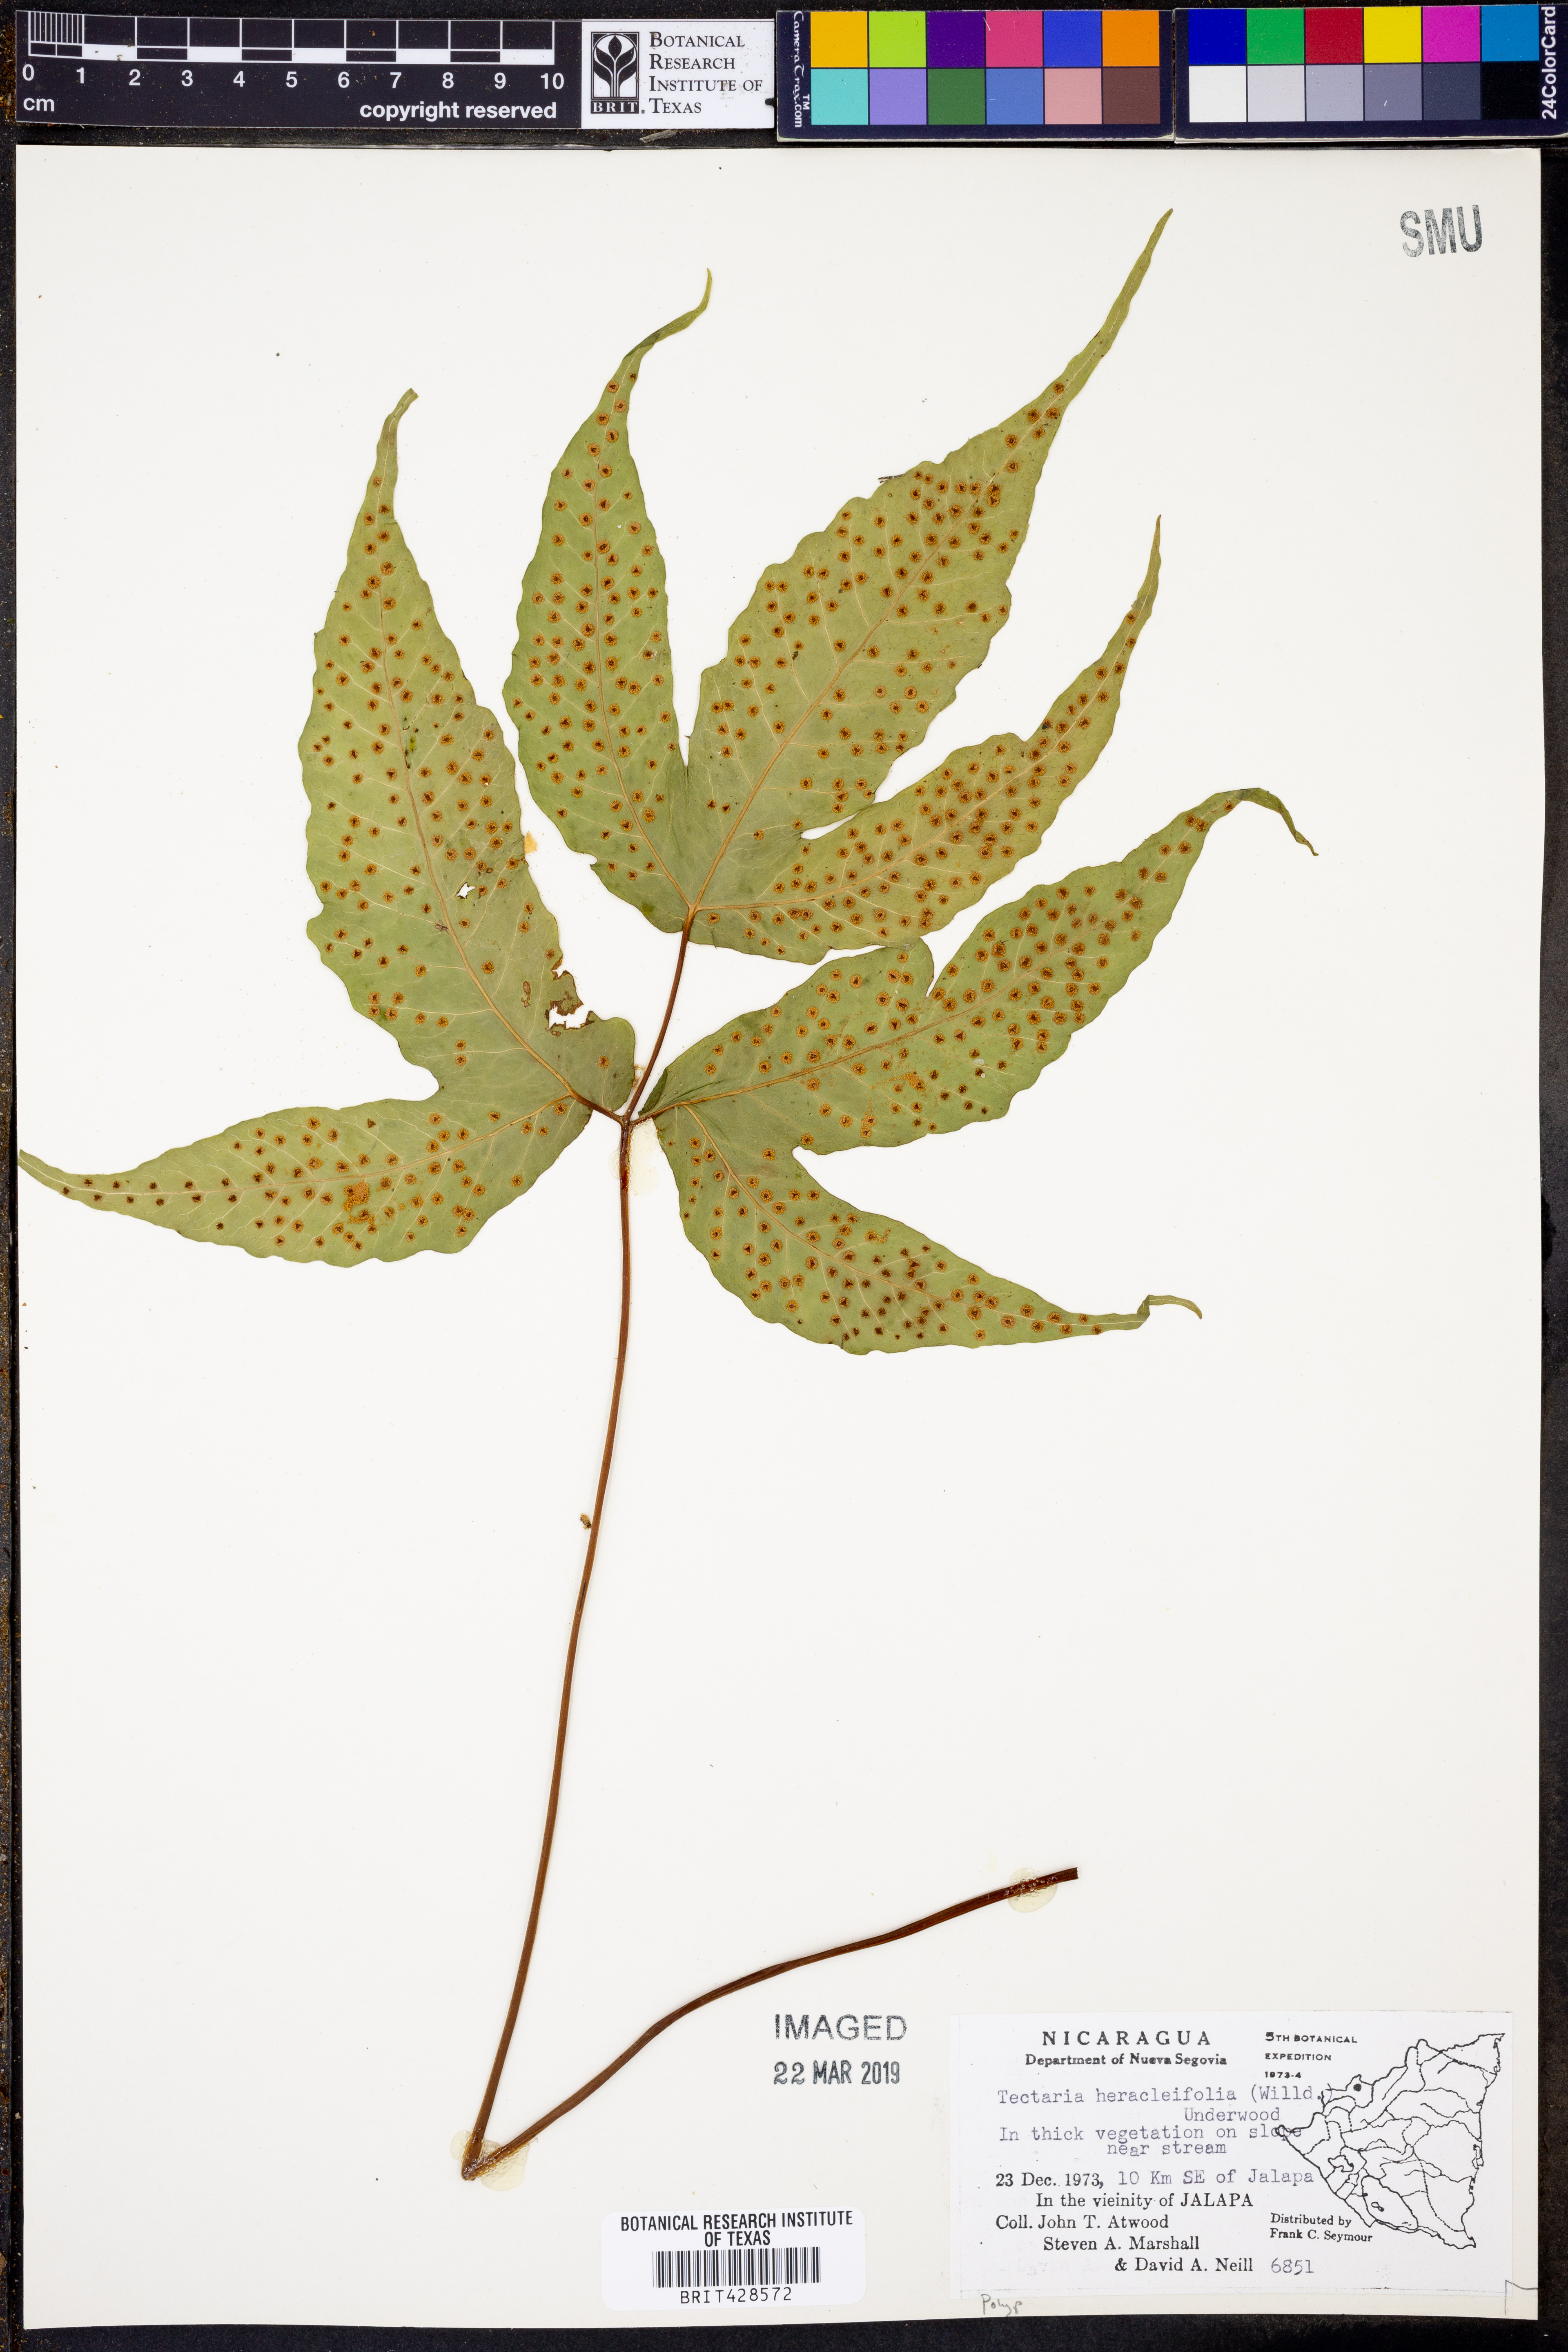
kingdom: Plantae
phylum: Tracheophyta
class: Polypodiopsida
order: Polypodiales
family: Tectariaceae
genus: Tectaria
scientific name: Tectaria heracleifolia
